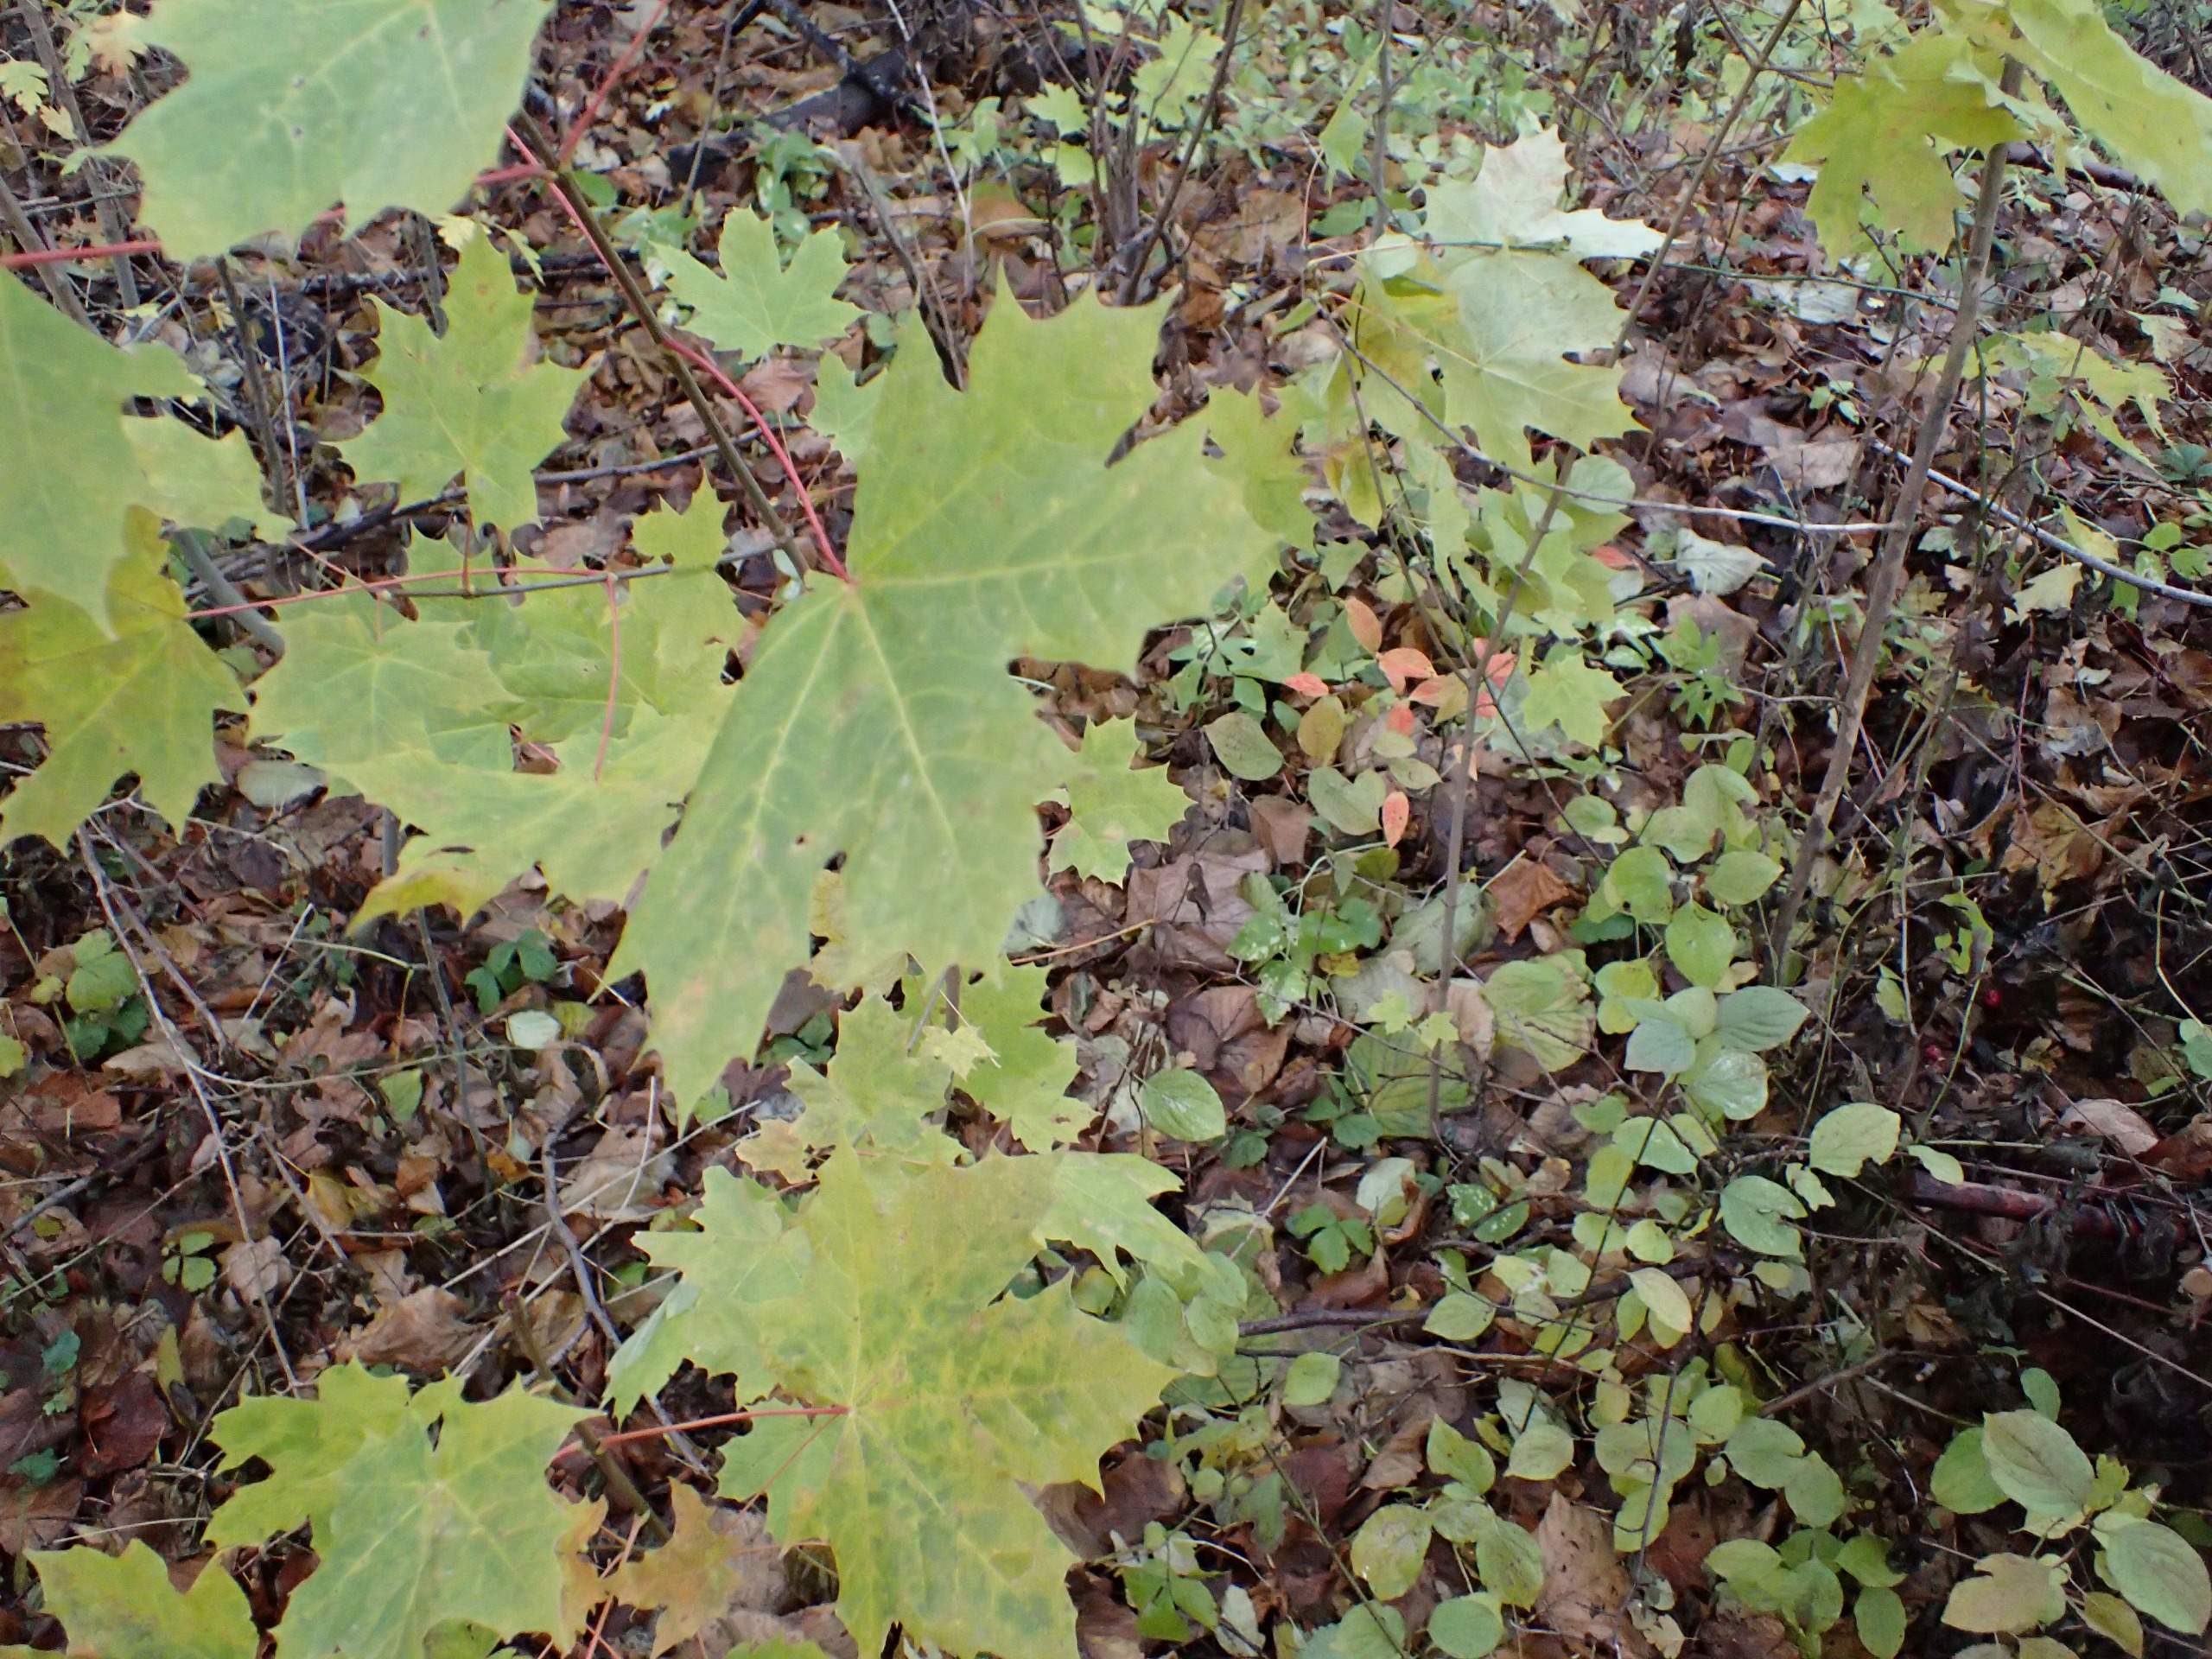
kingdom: Plantae
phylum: Tracheophyta
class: Magnoliopsida
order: Sapindales
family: Sapindaceae
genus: Acer
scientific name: Acer platanoides
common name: Spids-løn
